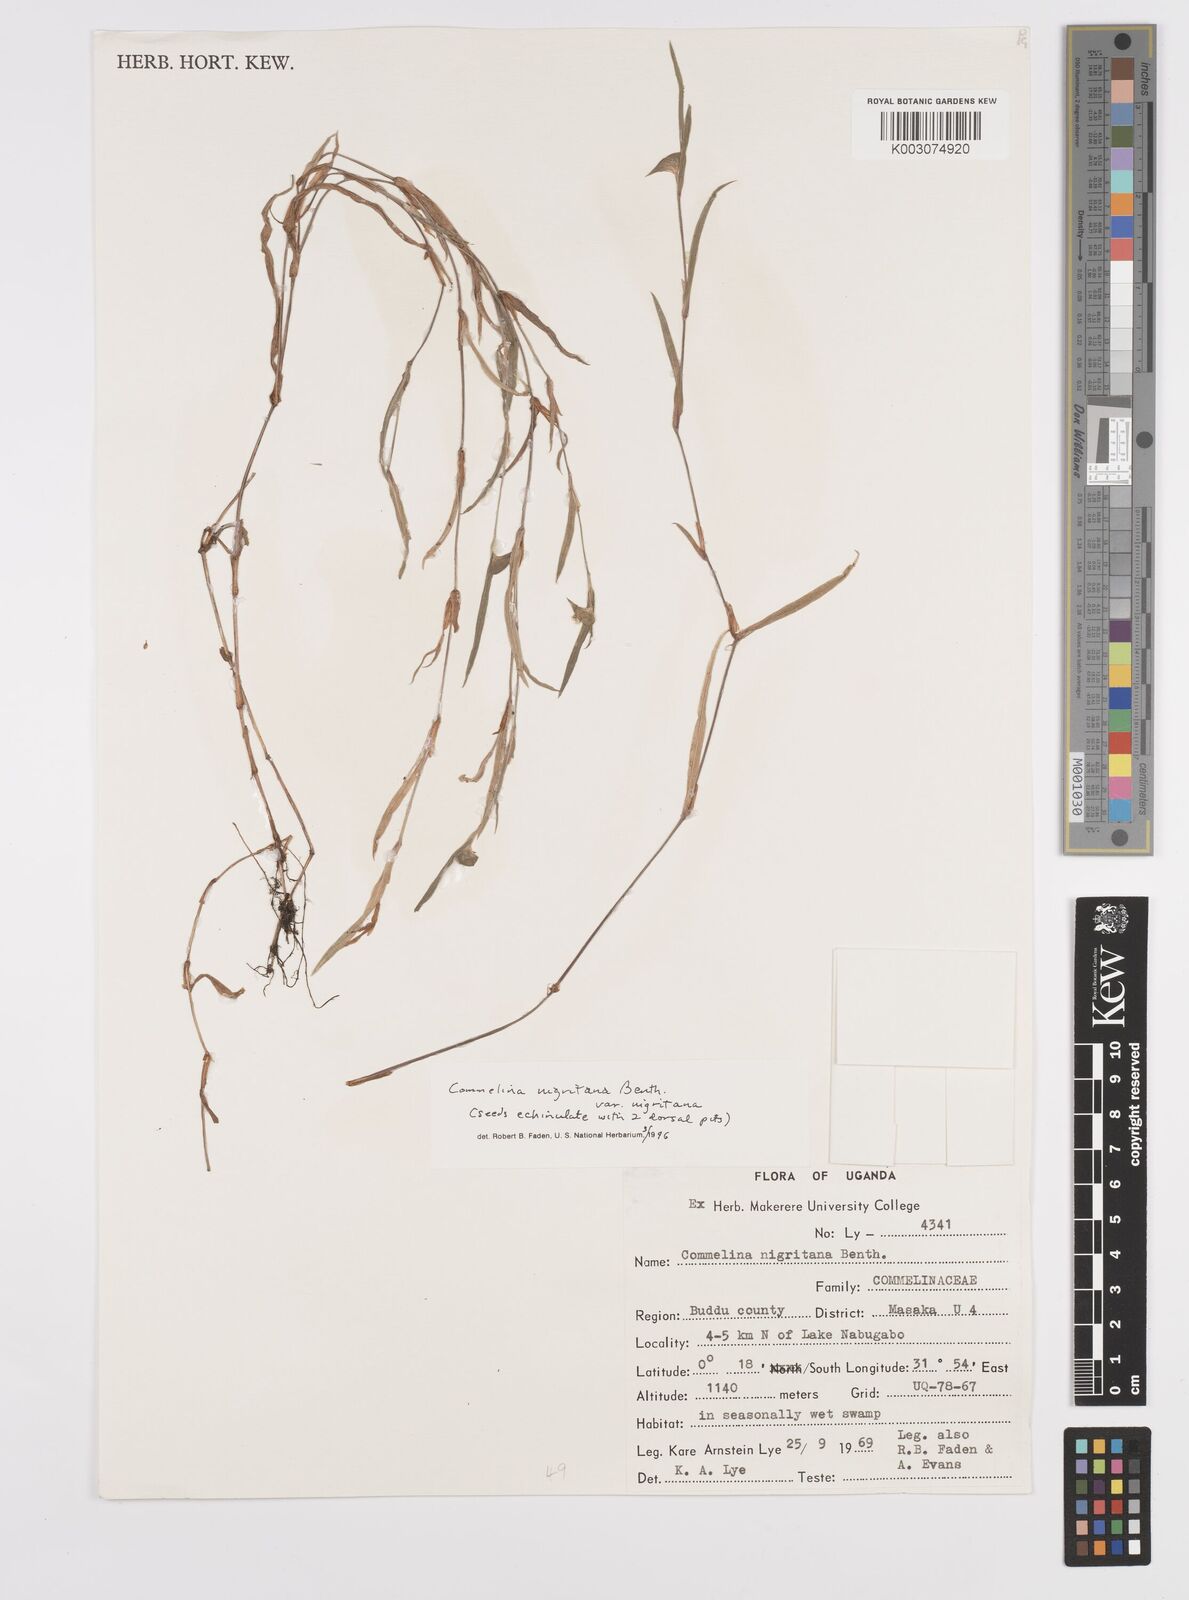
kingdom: Plantae
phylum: Tracheophyta
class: Liliopsida
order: Commelinales
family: Commelinaceae
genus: Commelina
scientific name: Commelina nigritana
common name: African dayflower
